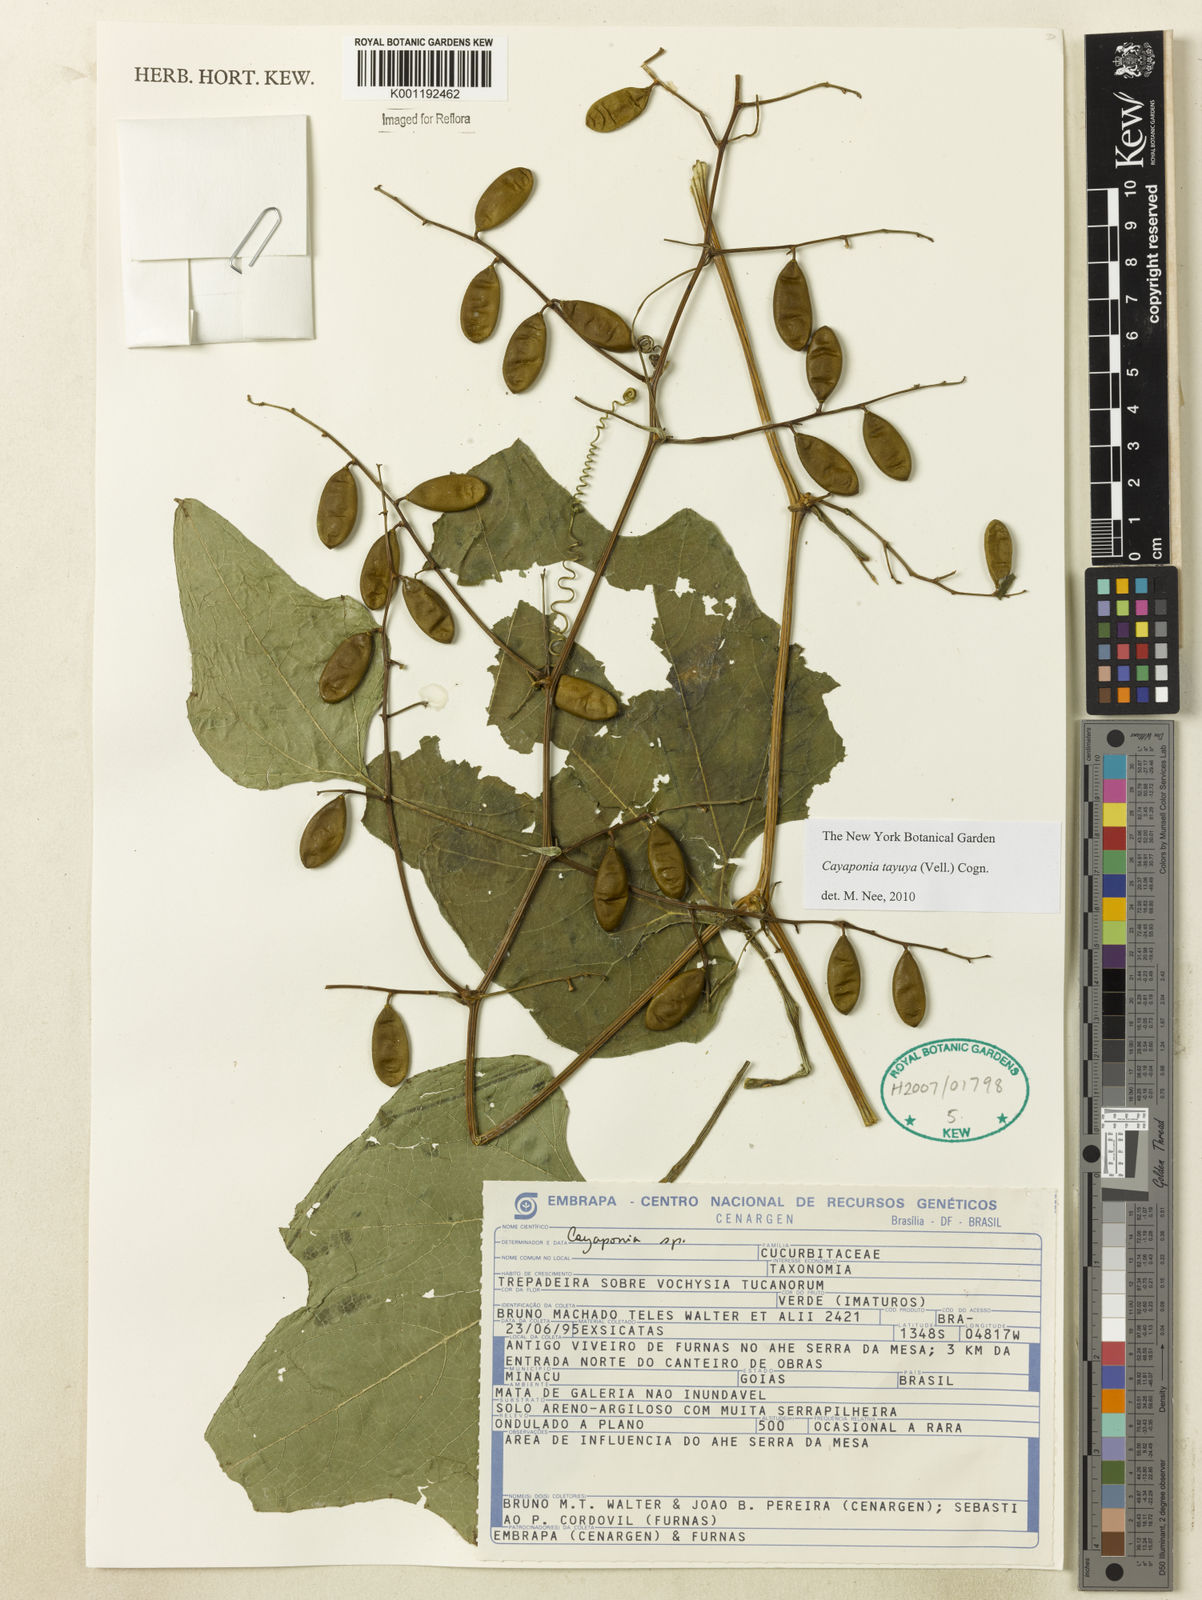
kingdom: Plantae
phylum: Tracheophyta
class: Magnoliopsida
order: Cucurbitales
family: Cucurbitaceae
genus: Cayaponia
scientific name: Cayaponia tayuya
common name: Tayuya
